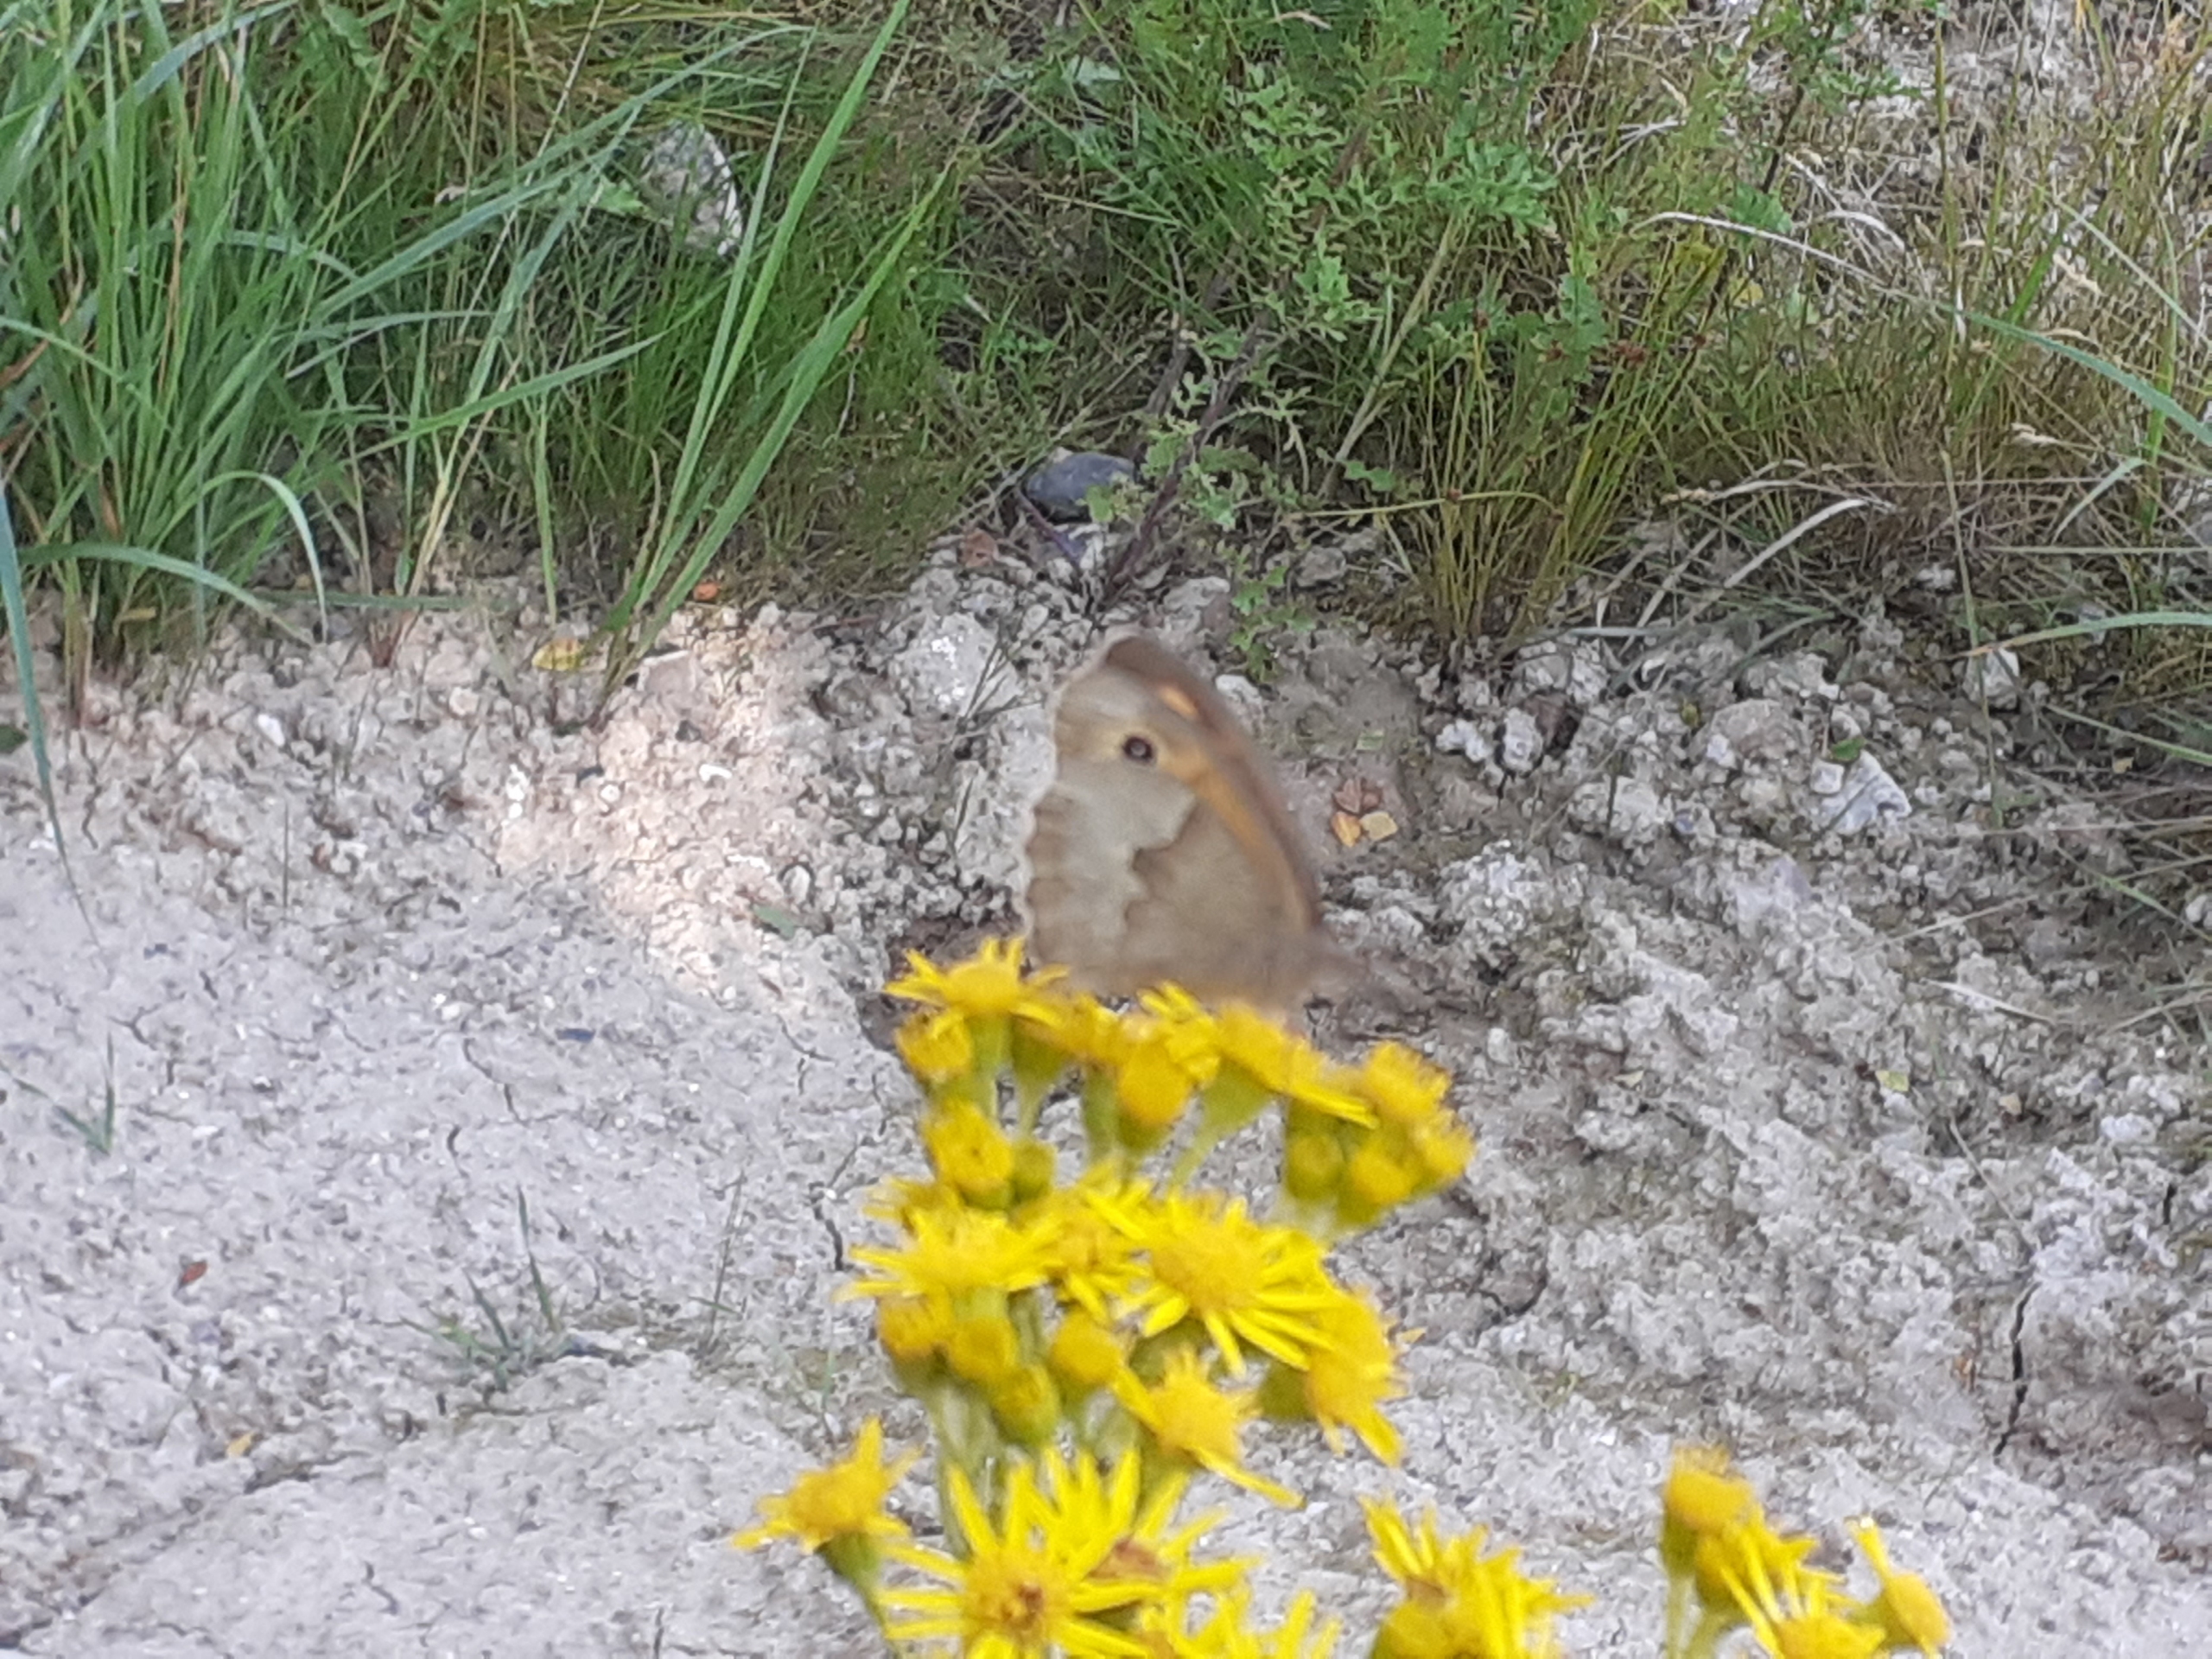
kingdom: Animalia
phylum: Arthropoda
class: Insecta
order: Lepidoptera
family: Nymphalidae
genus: Maniola
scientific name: Maniola jurtina
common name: Græsrandøje
